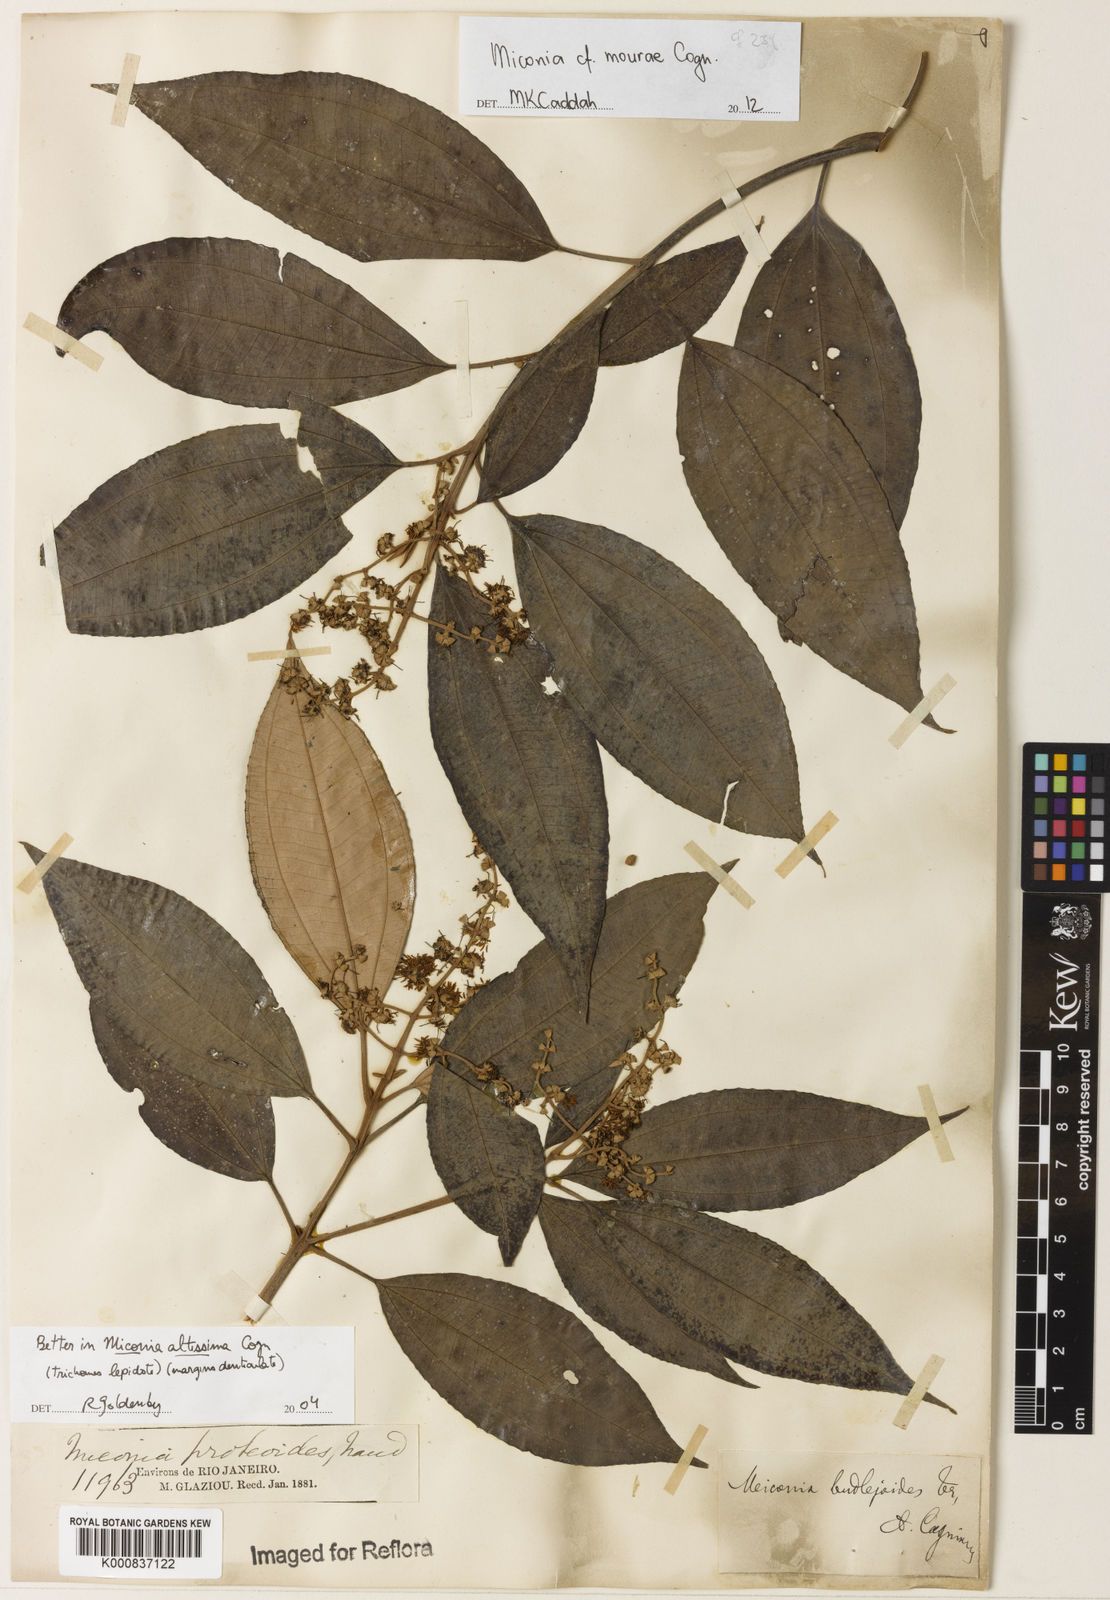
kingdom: Plantae
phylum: Tracheophyta
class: Magnoliopsida
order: Myrtales
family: Melastomataceae
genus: Miconia
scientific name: Miconia formosa
